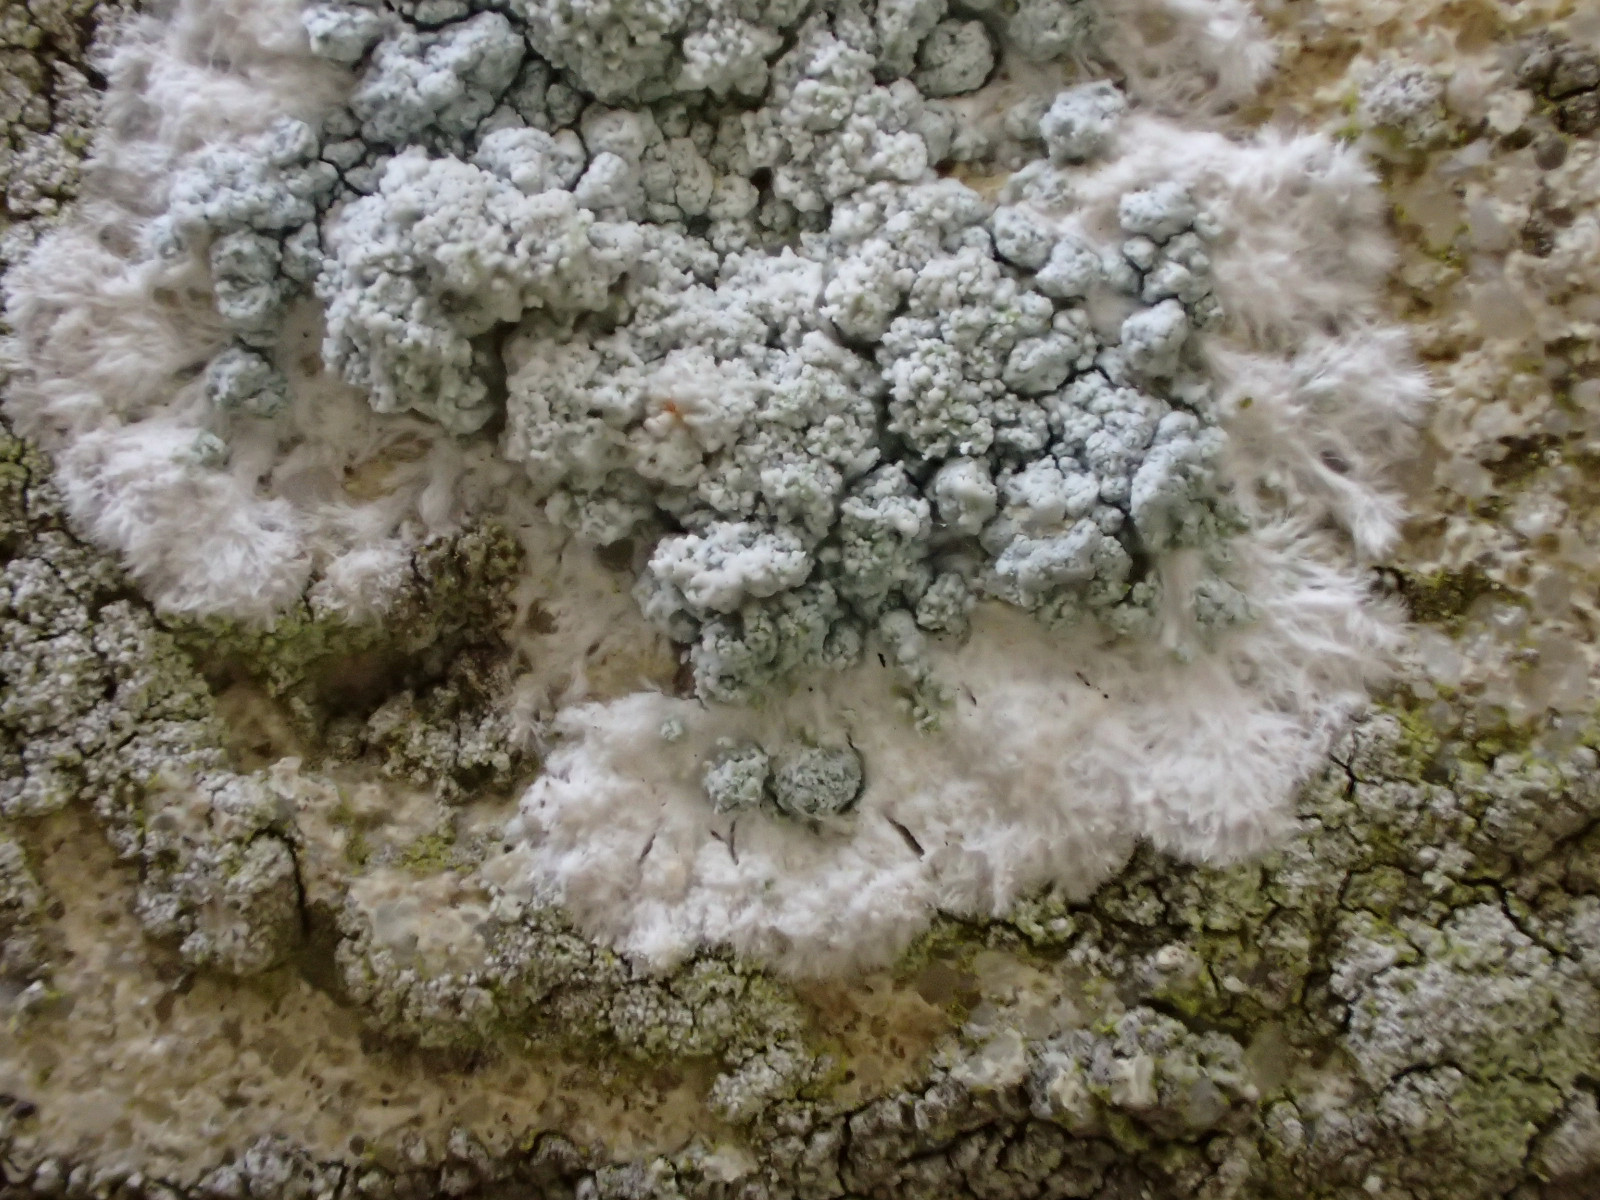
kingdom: Fungi
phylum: Ascomycota
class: Lecanoromycetes
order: Lecanorales
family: Haematommataceae
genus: Haematomma
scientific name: Haematomma ochroleucum
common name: gul trådkantlav
